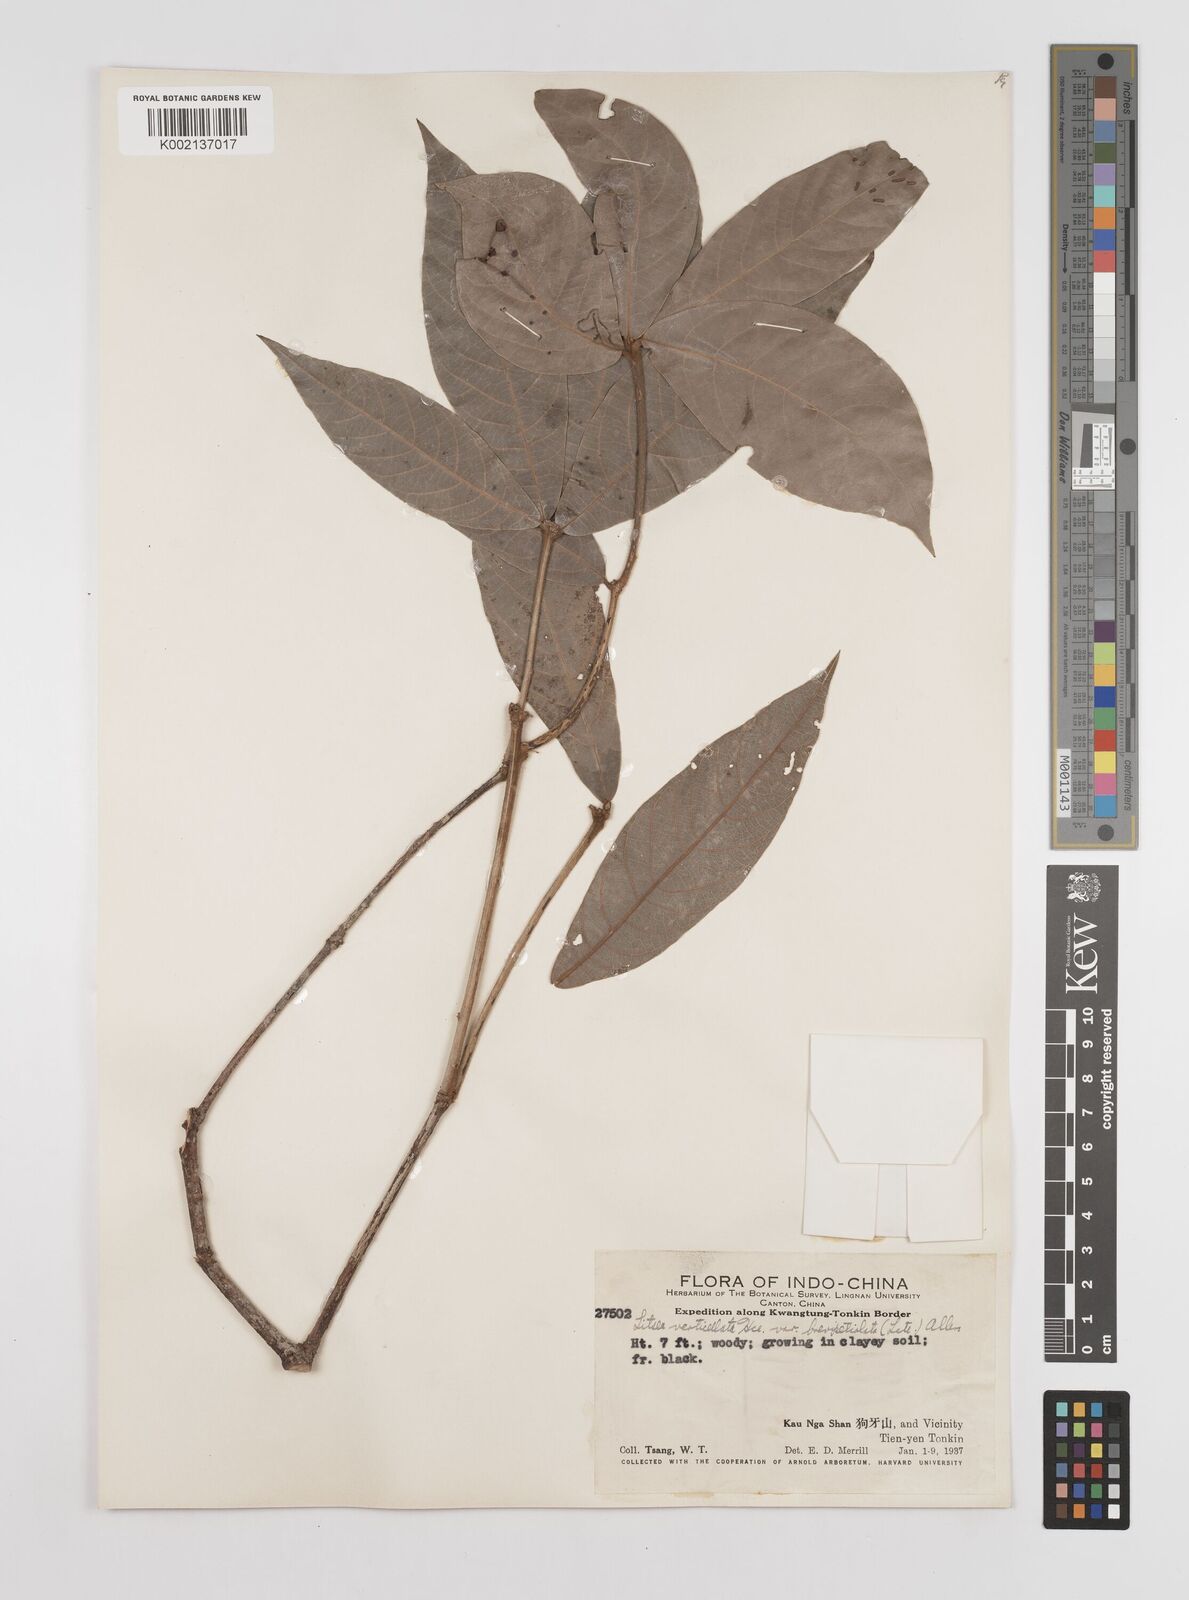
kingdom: Plantae
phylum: Tracheophyta
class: Magnoliopsida
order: Laurales
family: Lauraceae
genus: Litsea
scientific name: Litsea verticillata
